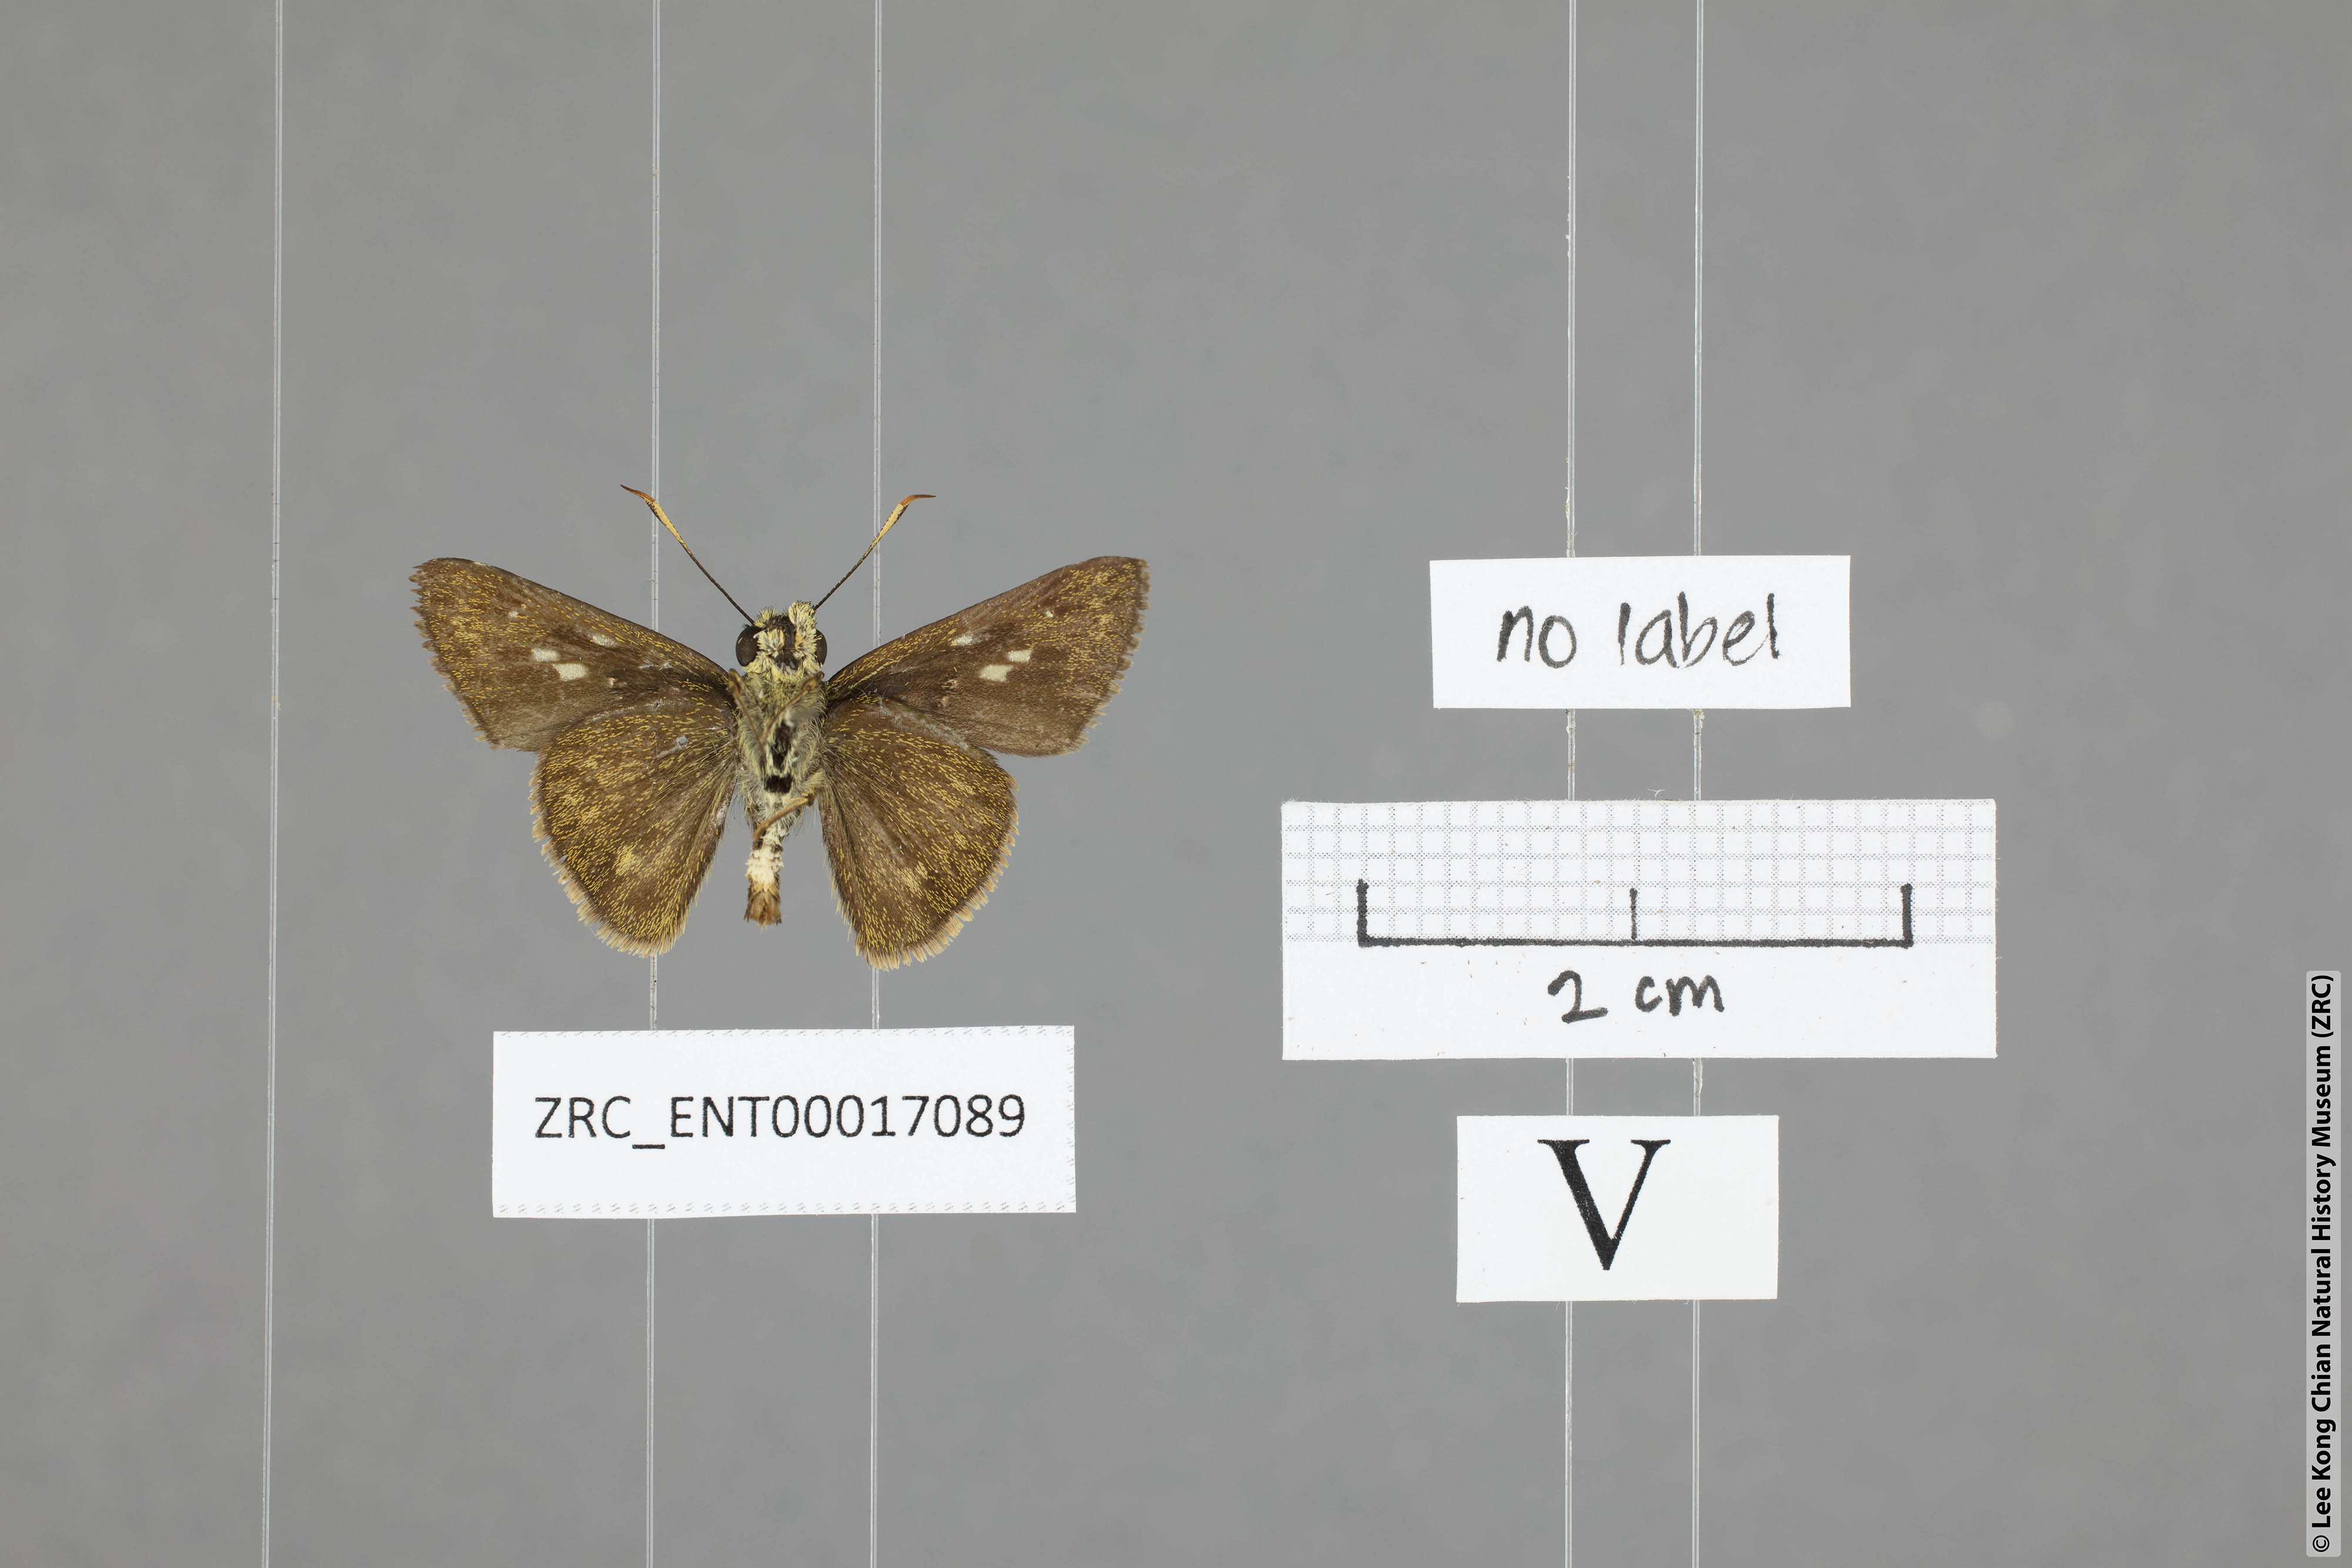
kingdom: Animalia
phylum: Arthropoda
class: Insecta
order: Lepidoptera
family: Hesperiidae
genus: Halpe
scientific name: Halpe wantona
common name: Swinhoe's ace
